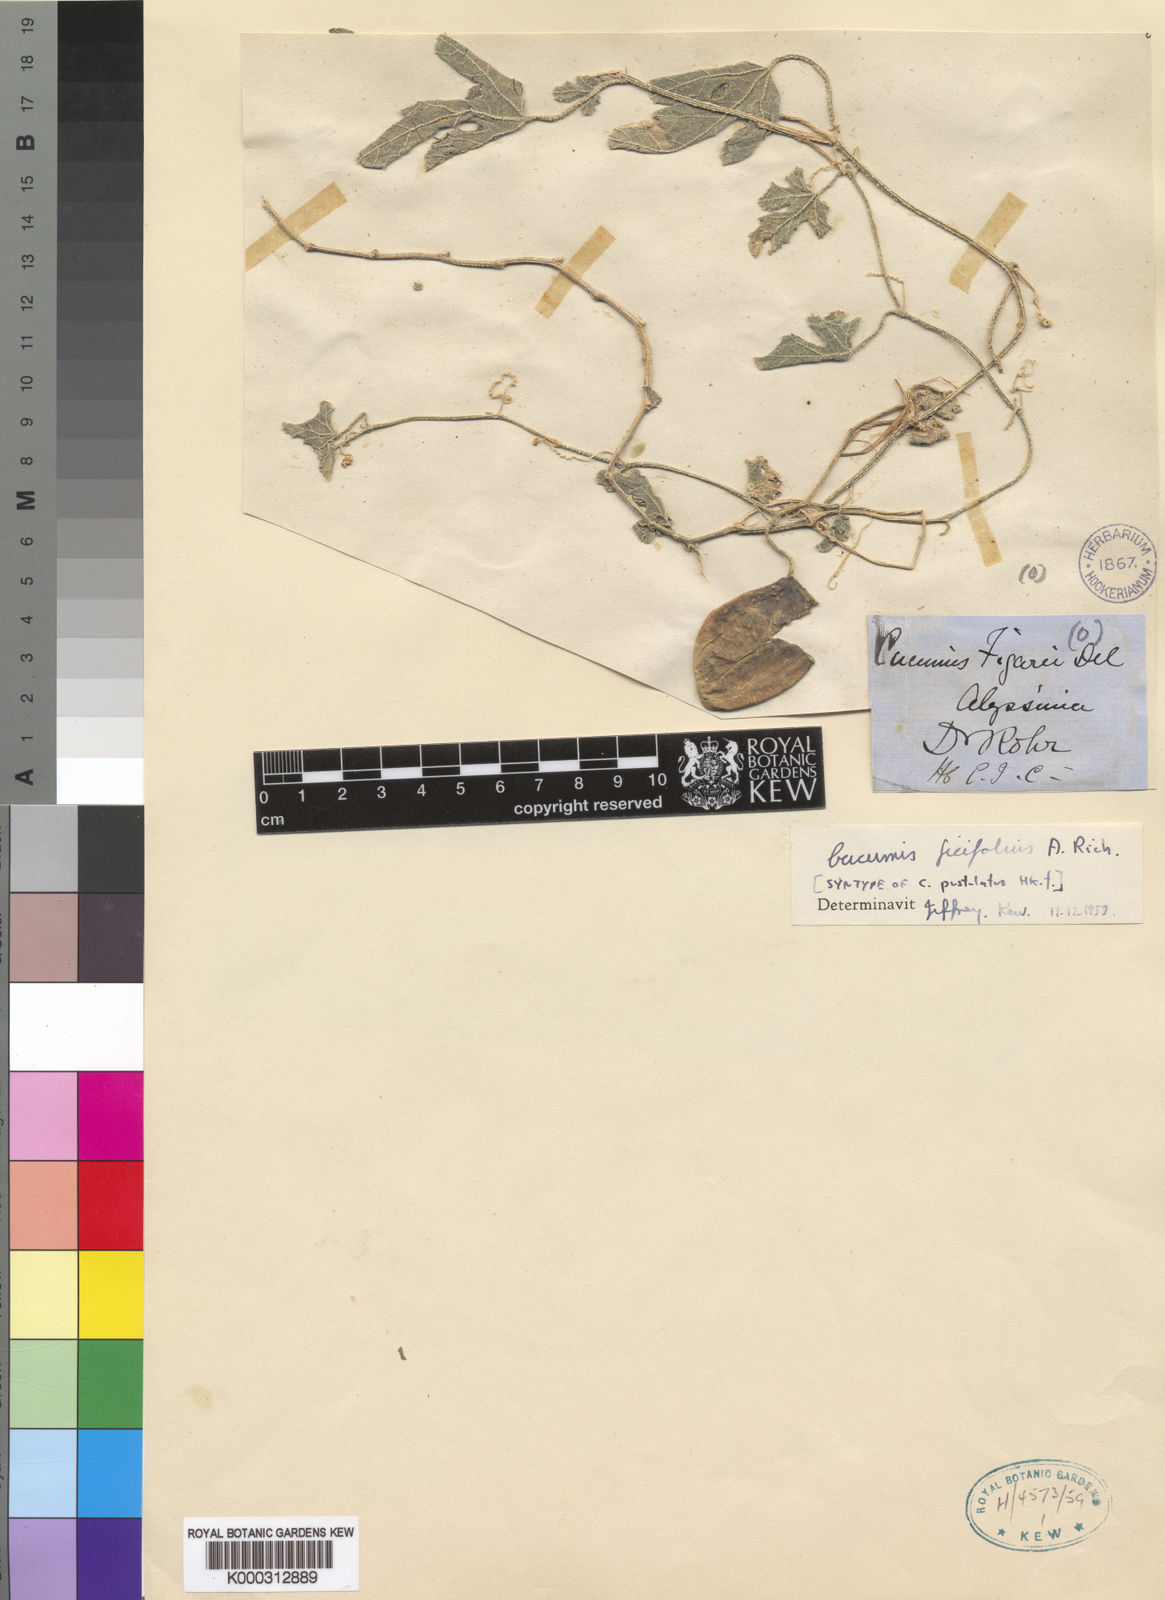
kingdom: Plantae
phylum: Tracheophyta
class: Magnoliopsida
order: Cucurbitales
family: Cucurbitaceae
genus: Cucumis
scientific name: Cucumis ficifolius
